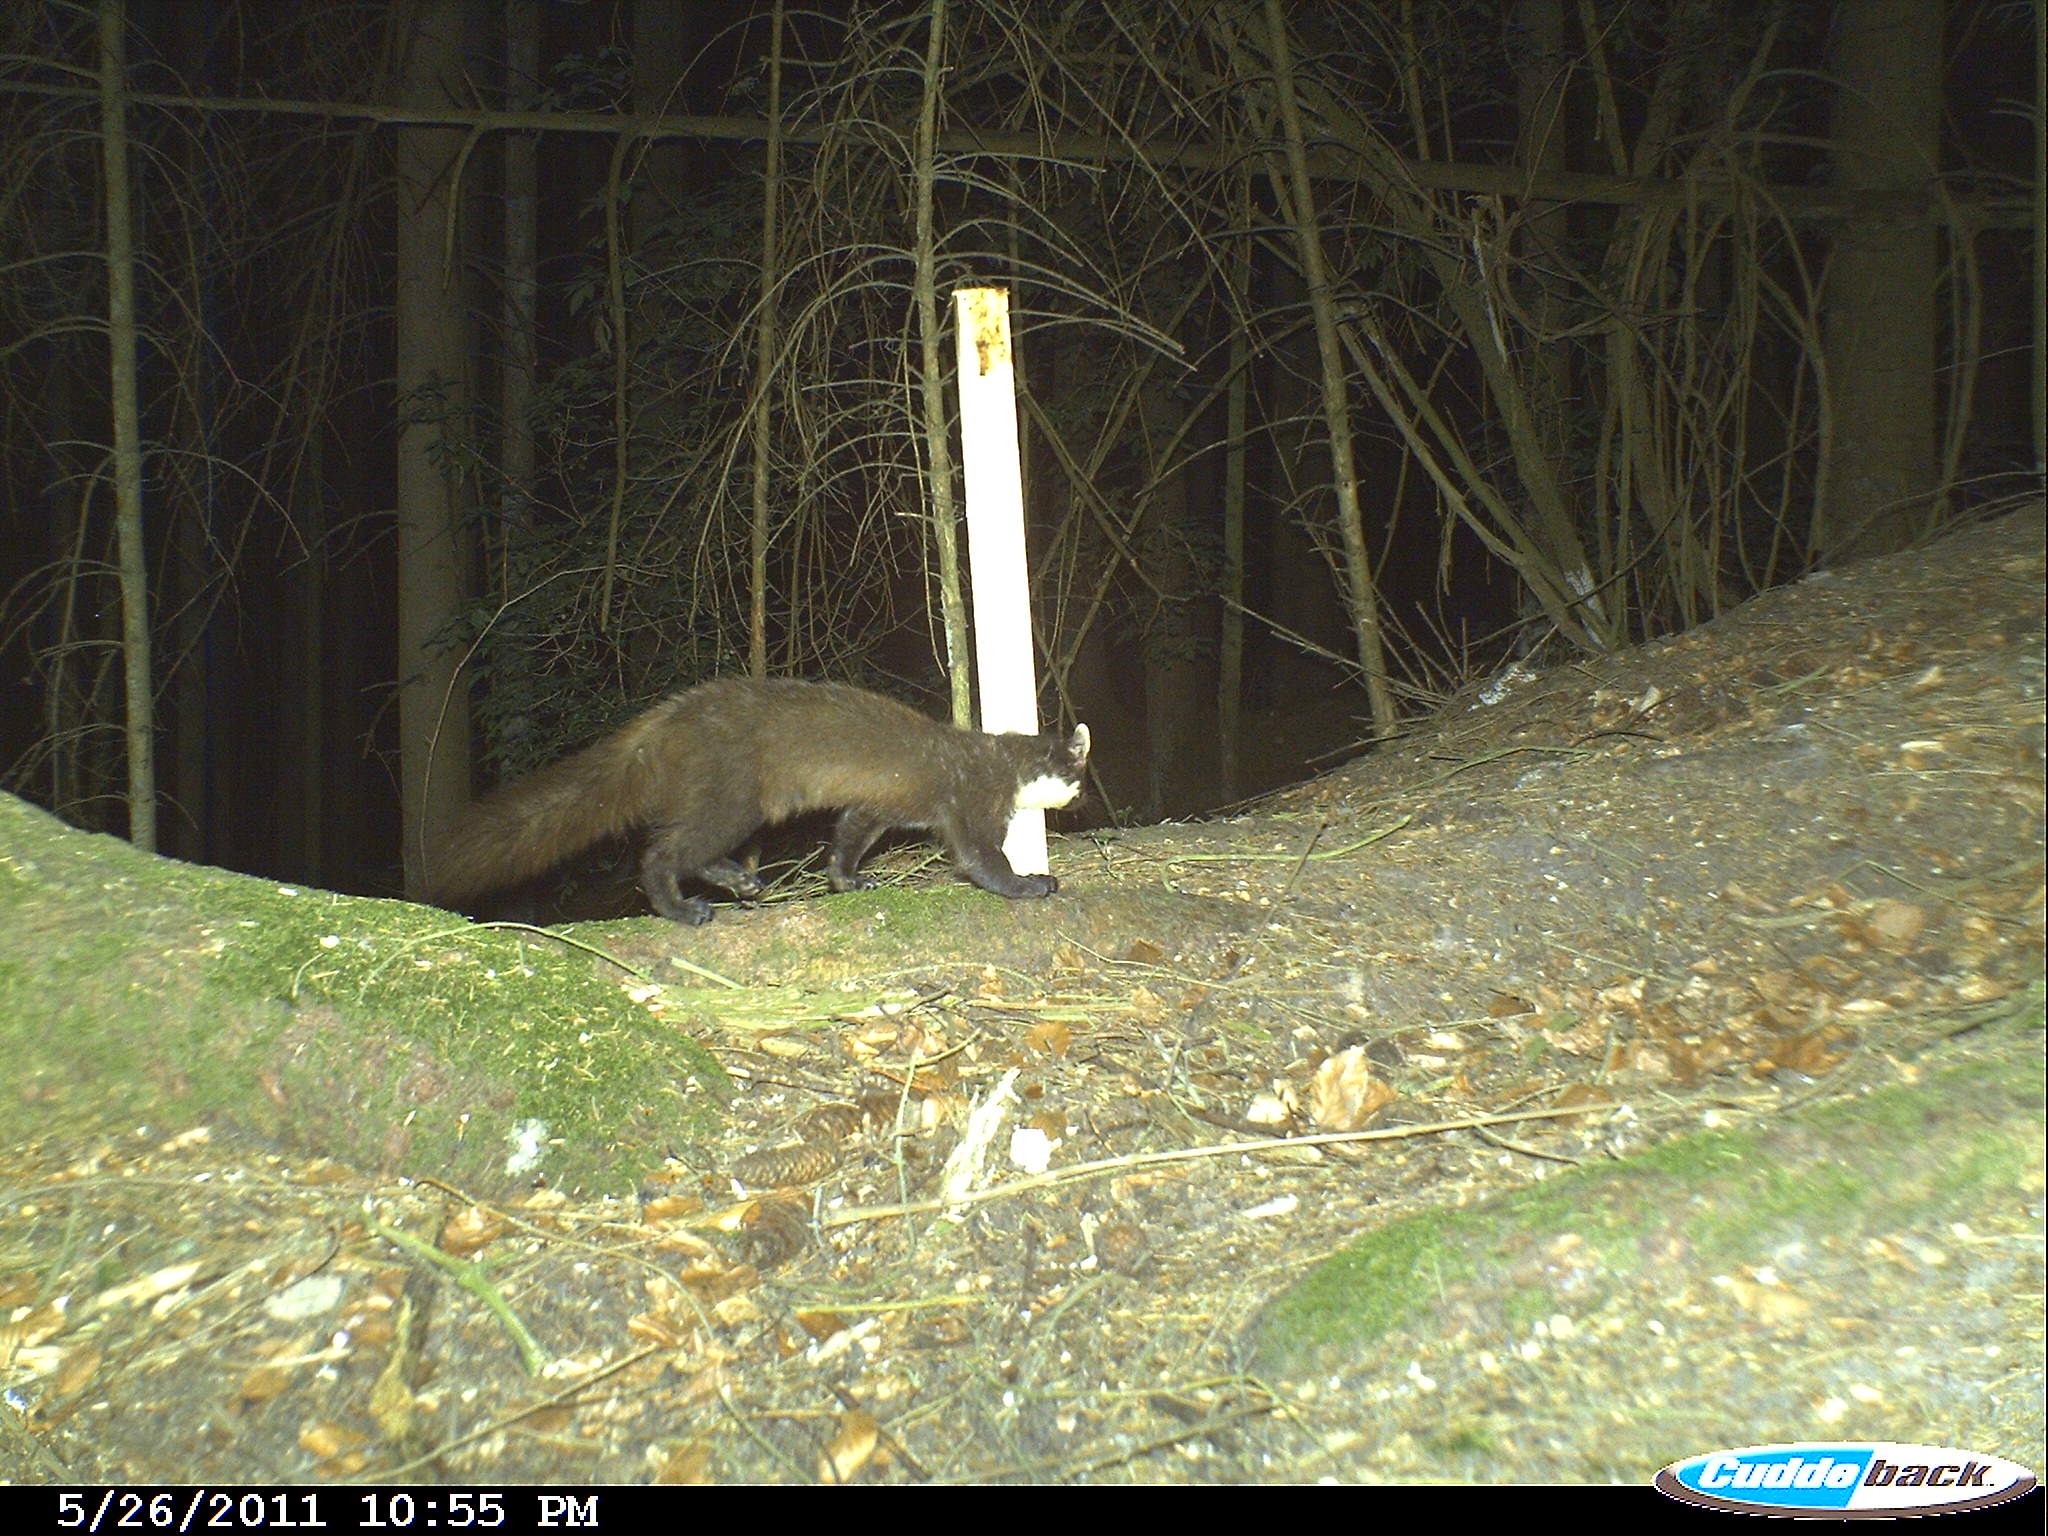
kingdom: Animalia
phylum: Chordata
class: Mammalia
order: Carnivora
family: Mustelidae
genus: Martes
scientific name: Martes martes
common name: European pine marten
